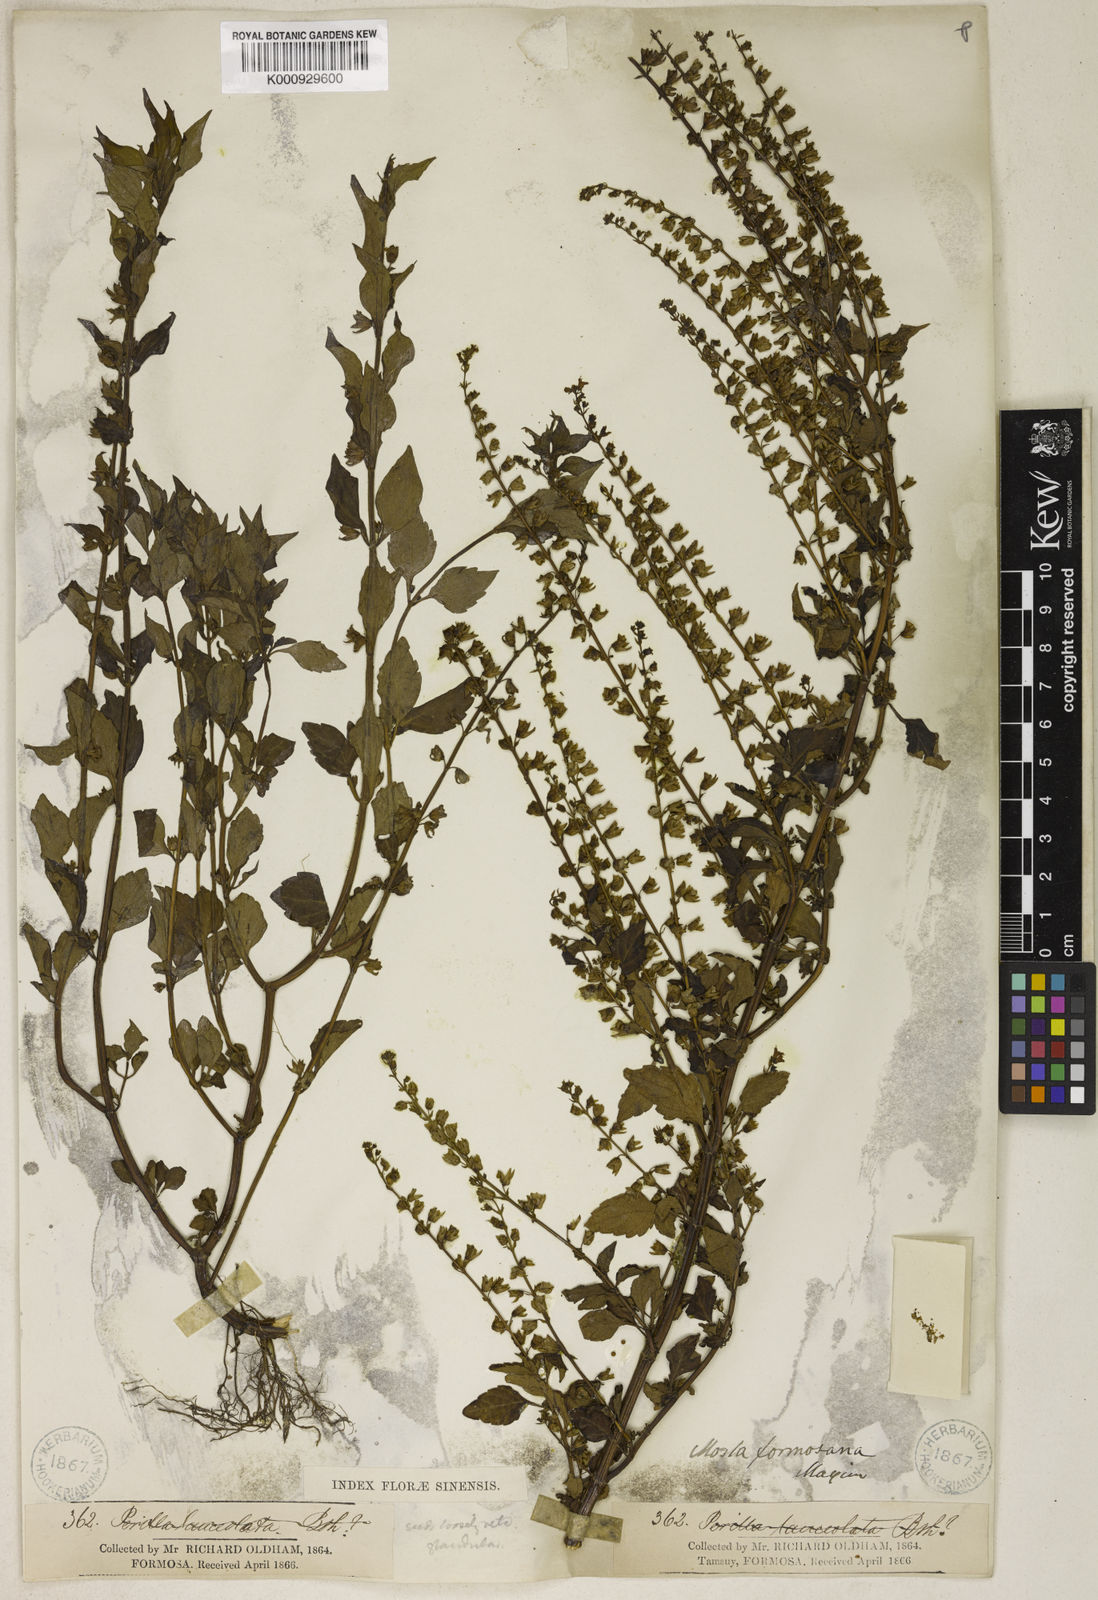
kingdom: Plantae
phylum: Tracheophyta
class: Magnoliopsida
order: Lamiales
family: Lamiaceae
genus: Mosla
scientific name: Mosla dianthera
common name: Miniature beefsteakplant
